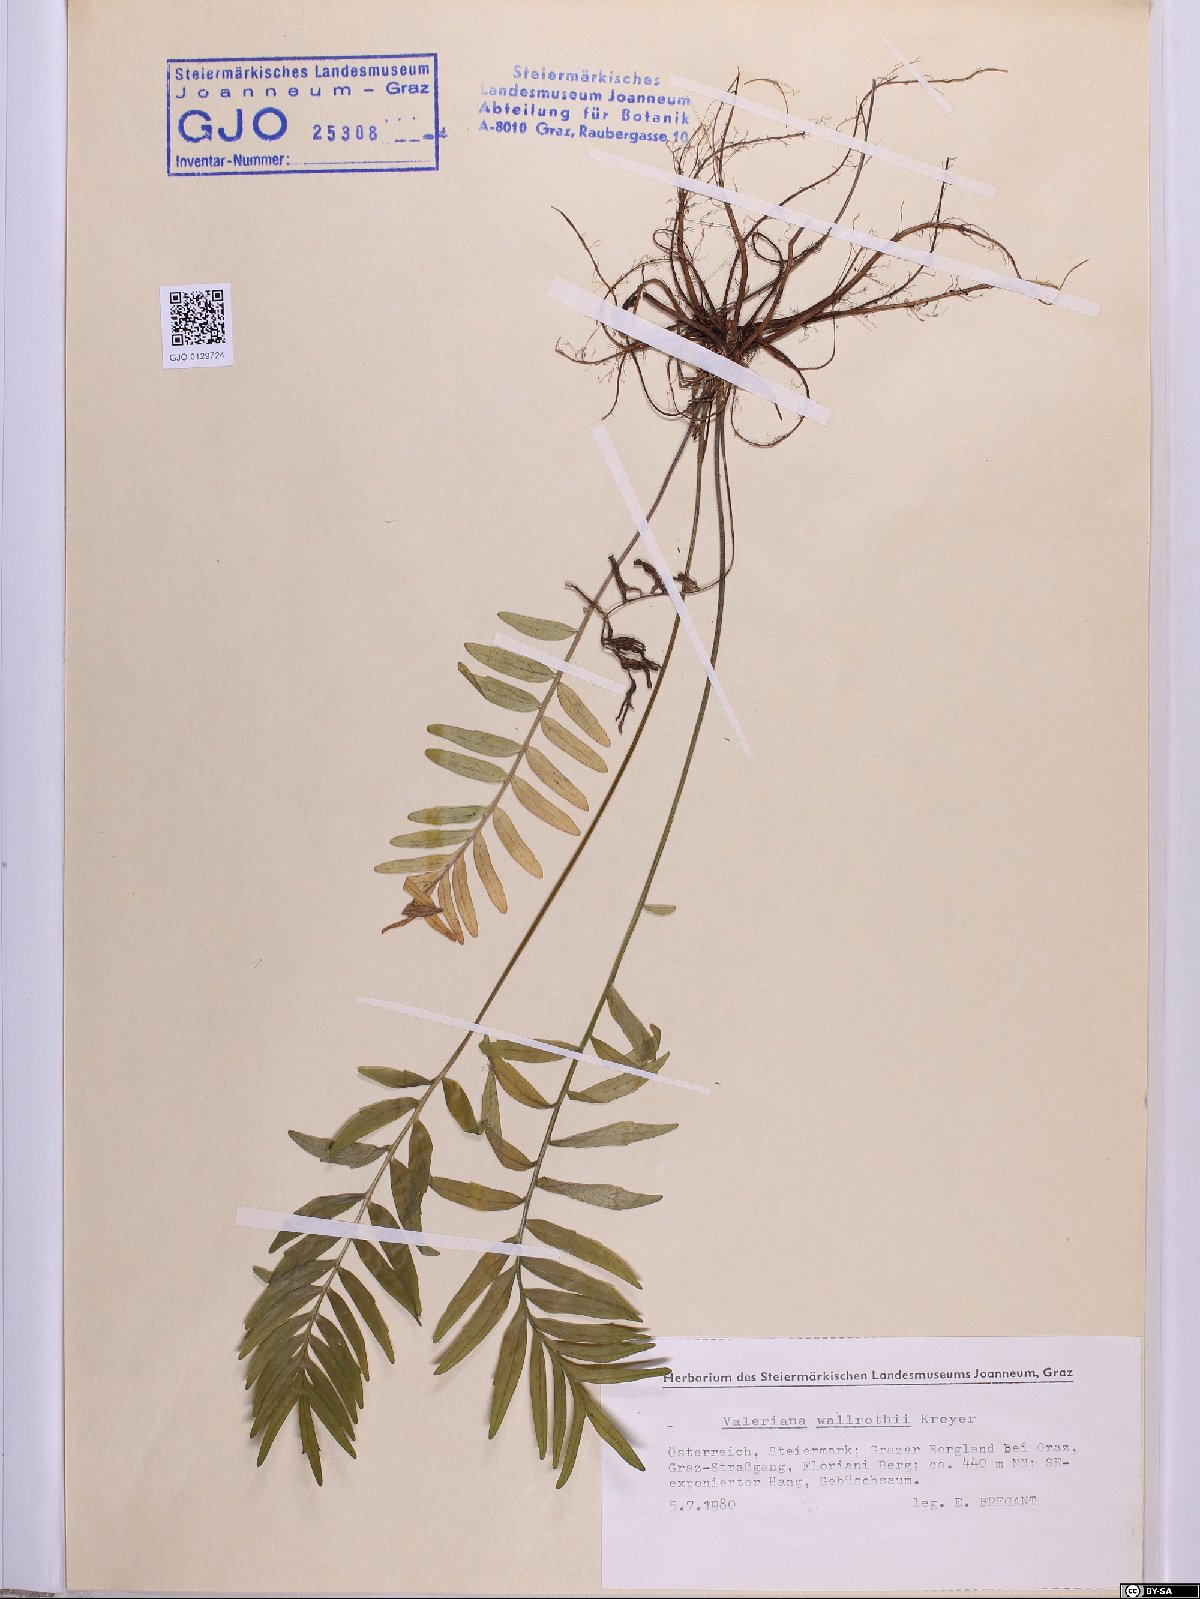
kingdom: Plantae
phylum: Tracheophyta
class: Magnoliopsida
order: Dipsacales
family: Caprifoliaceae
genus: Valeriana
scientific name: Valeriana pratensis
